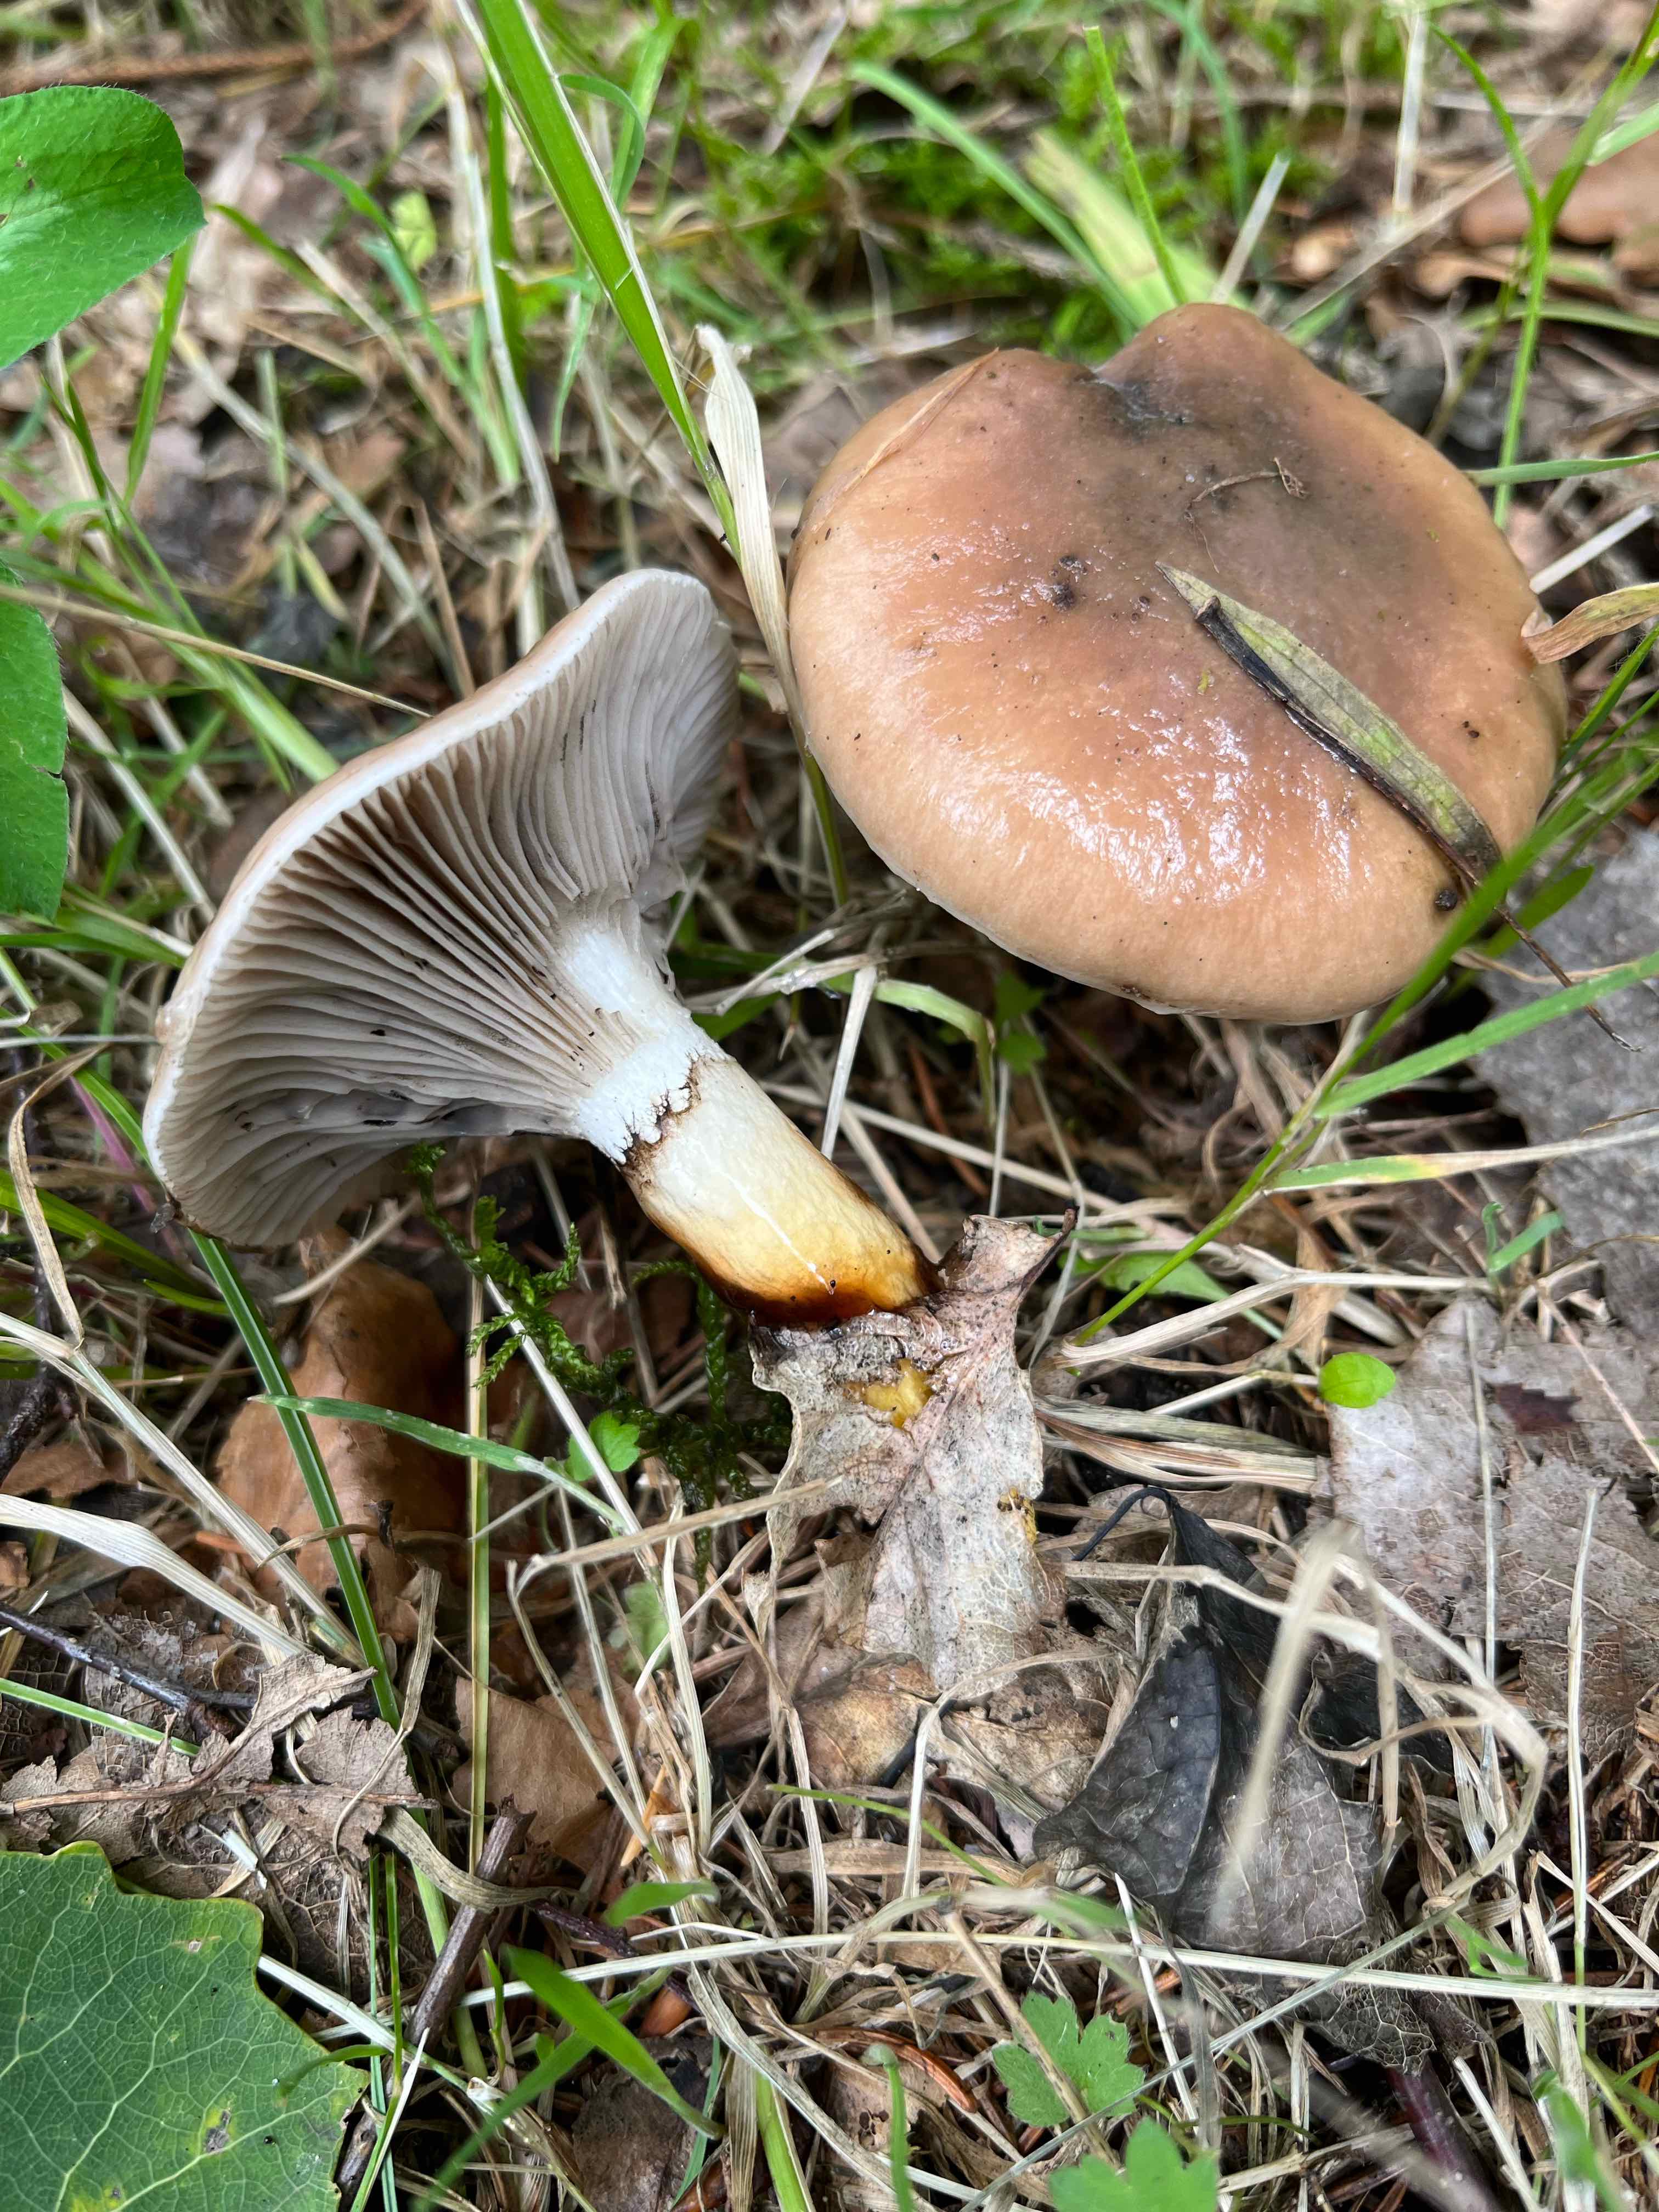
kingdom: Fungi
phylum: Basidiomycota
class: Agaricomycetes
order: Boletales
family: Gomphidiaceae
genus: Gomphidius
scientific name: Gomphidius glutinosus
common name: grå slimslør
